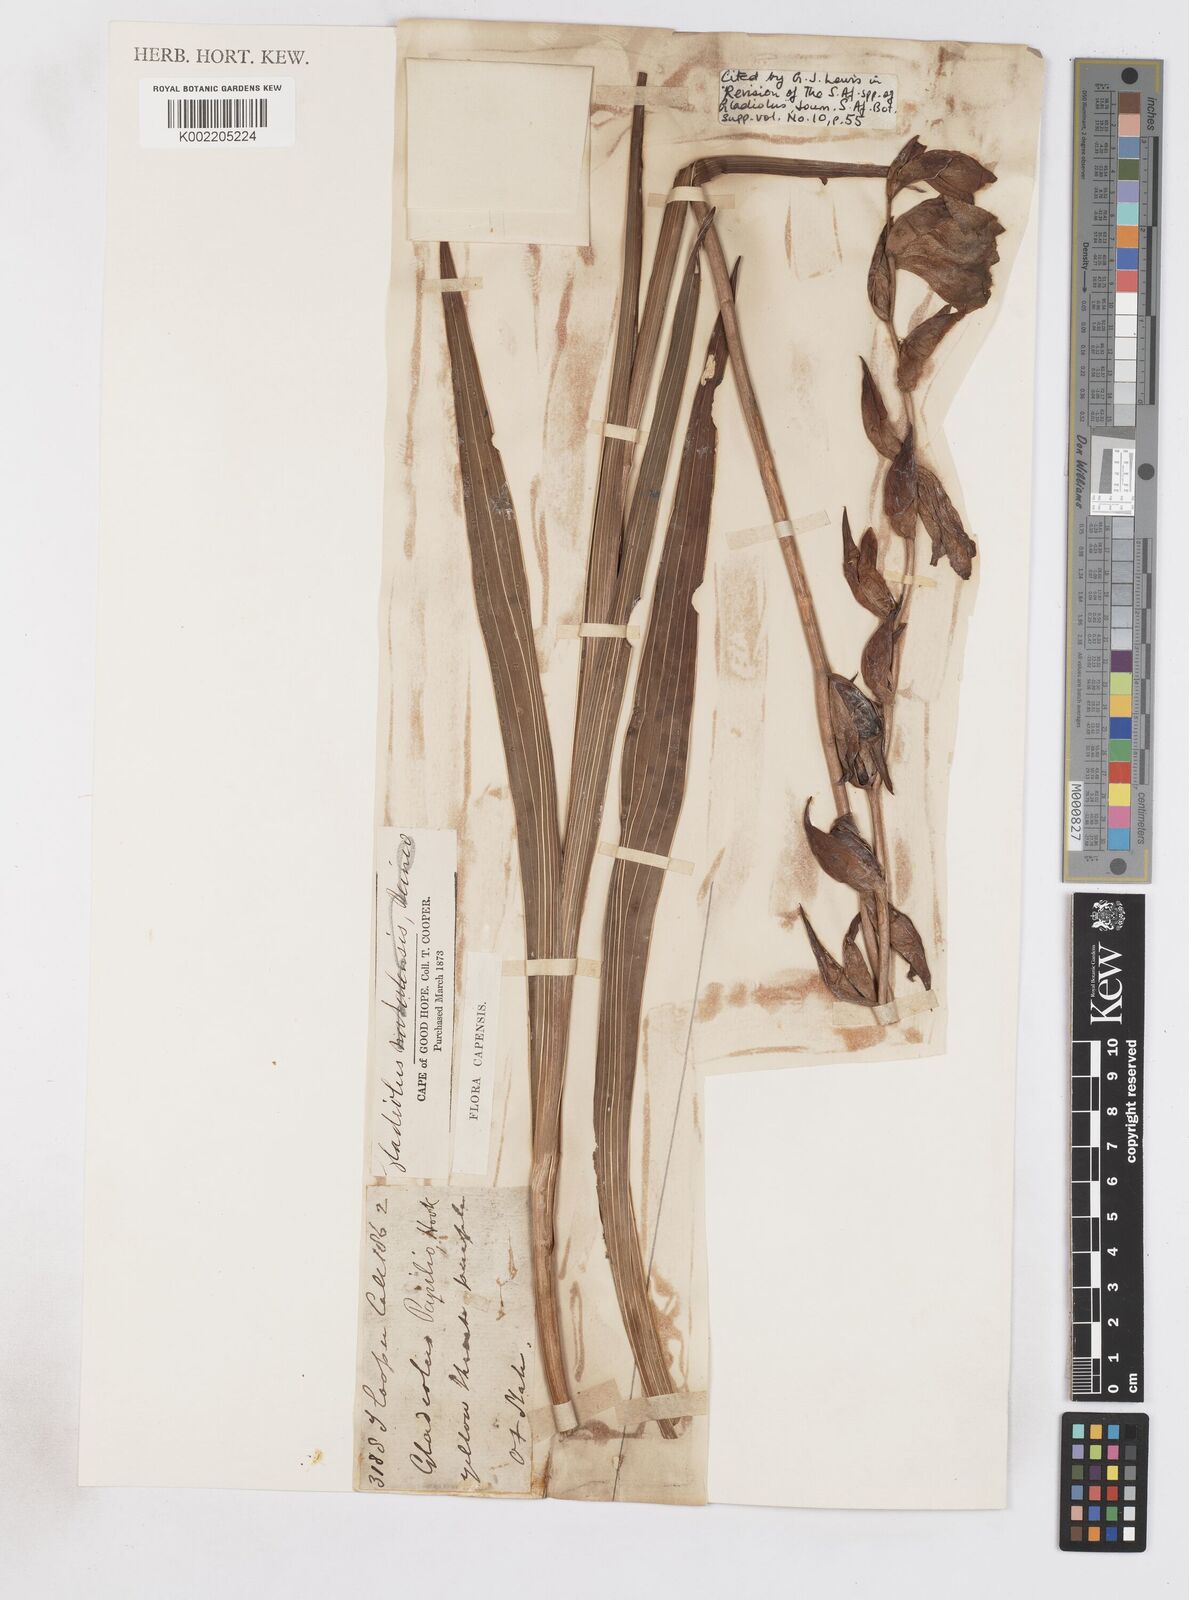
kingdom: Plantae
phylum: Tracheophyta
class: Liliopsida
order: Asparagales
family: Iridaceae
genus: Gladiolus
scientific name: Gladiolus papilio
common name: Goldblotch gladiolus
